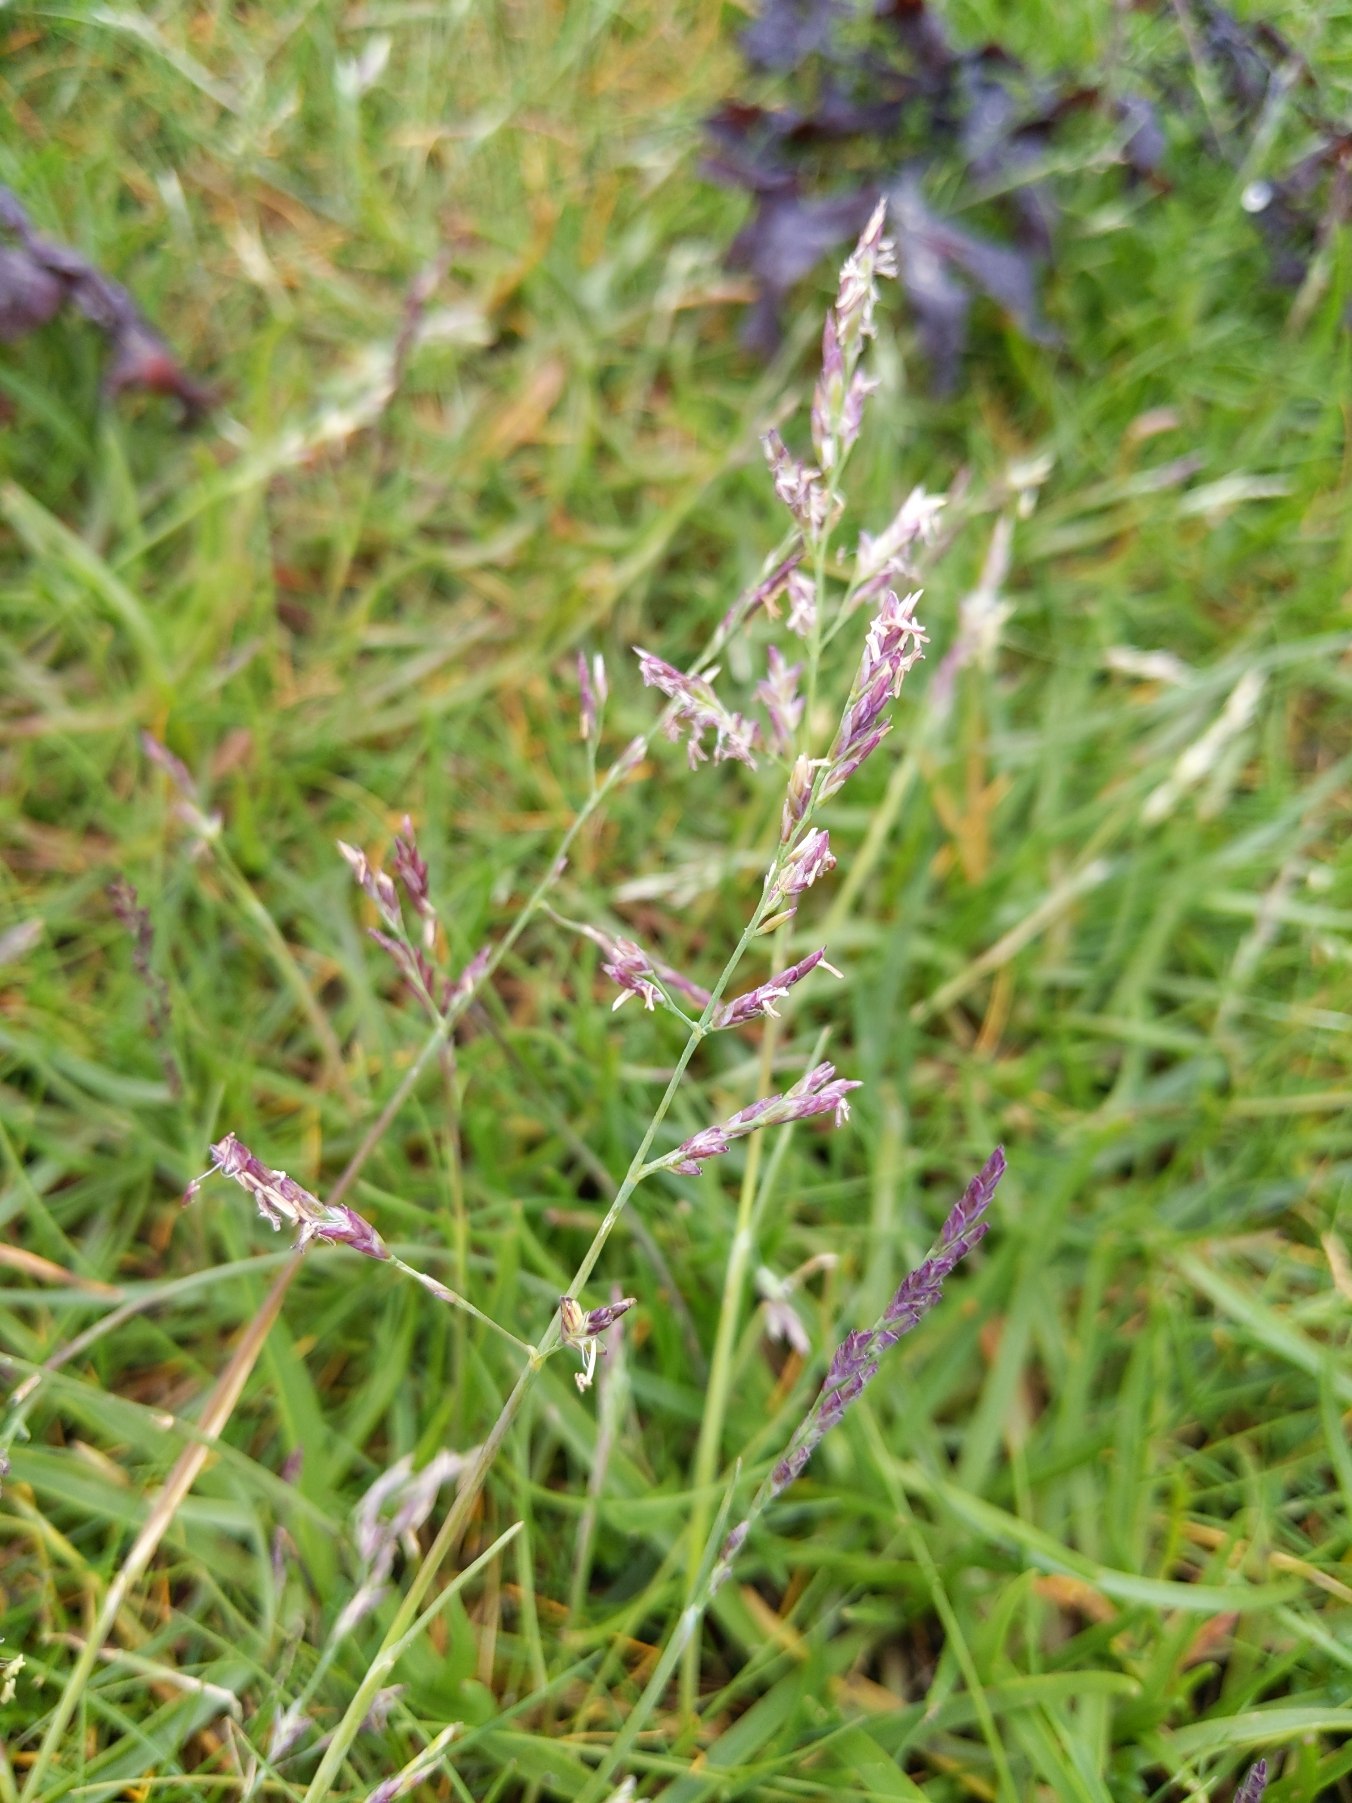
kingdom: Plantae
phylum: Tracheophyta
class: Liliopsida
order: Poales
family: Poaceae
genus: Puccinellia
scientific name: Puccinellia maritima
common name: Strand-annelgræs
